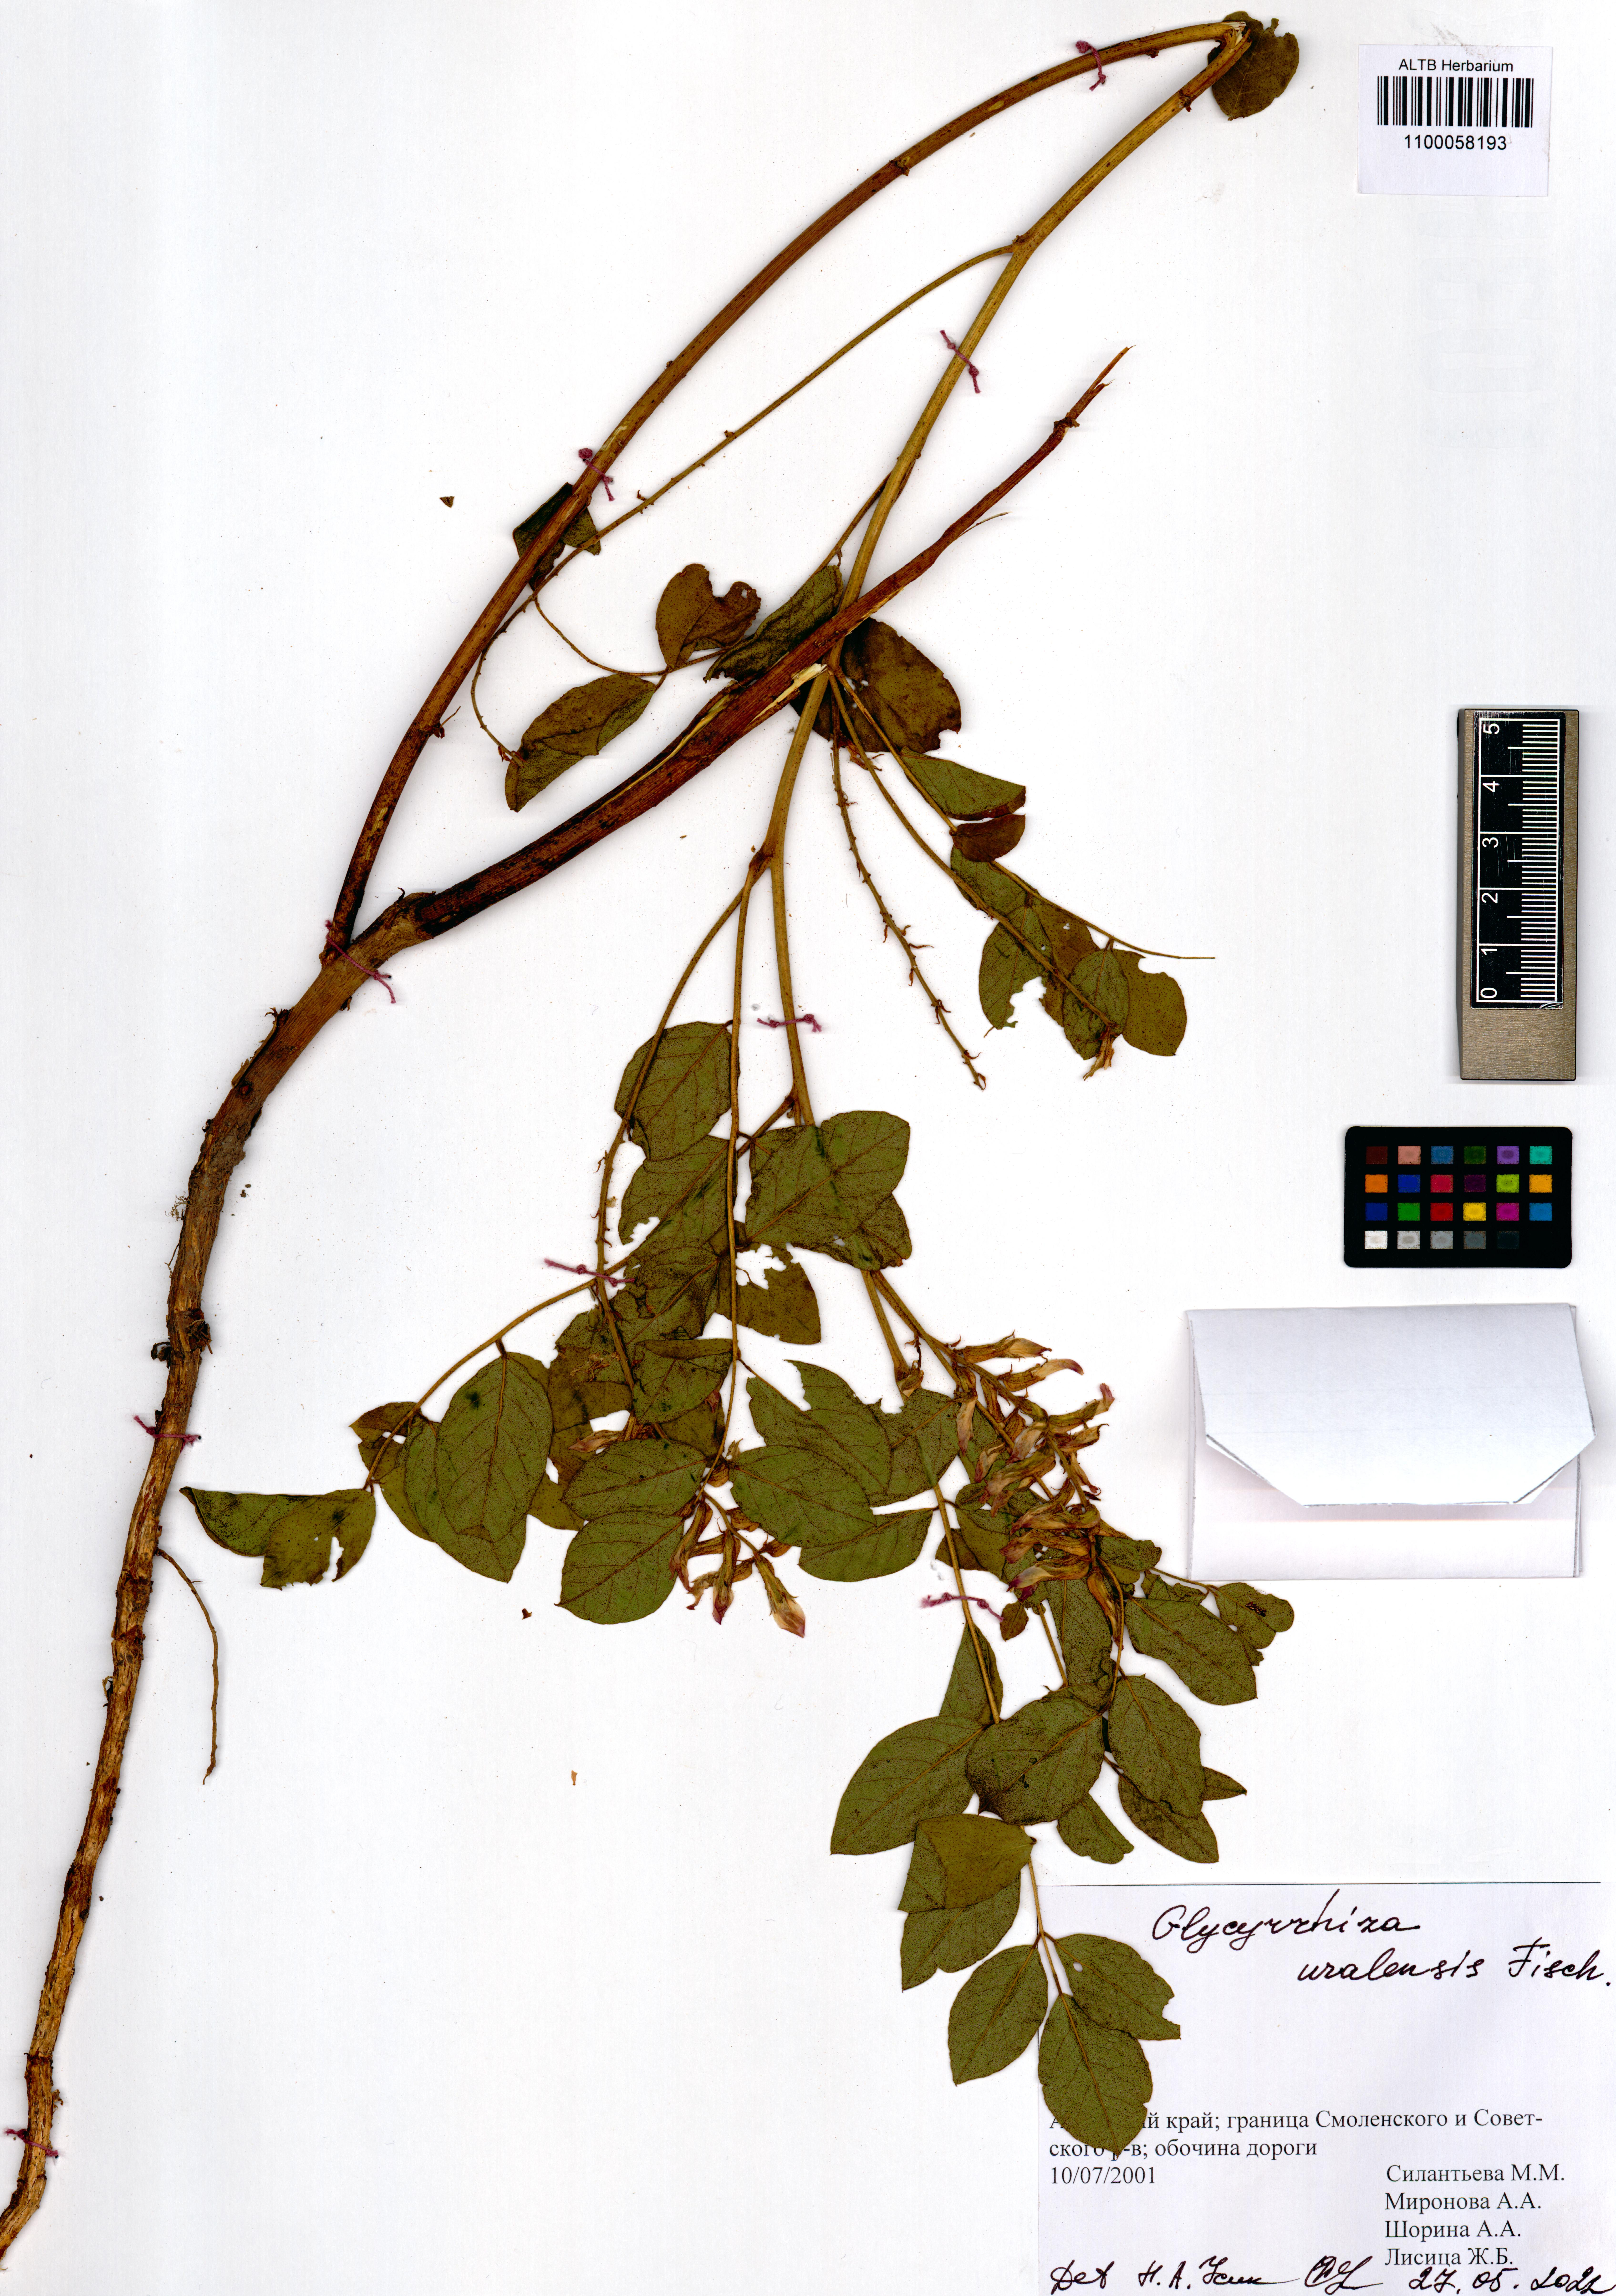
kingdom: Plantae
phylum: Tracheophyta
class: Magnoliopsida
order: Fabales
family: Fabaceae
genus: Glycyrrhiza
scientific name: Glycyrrhiza uralensis
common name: Chinese licorice
